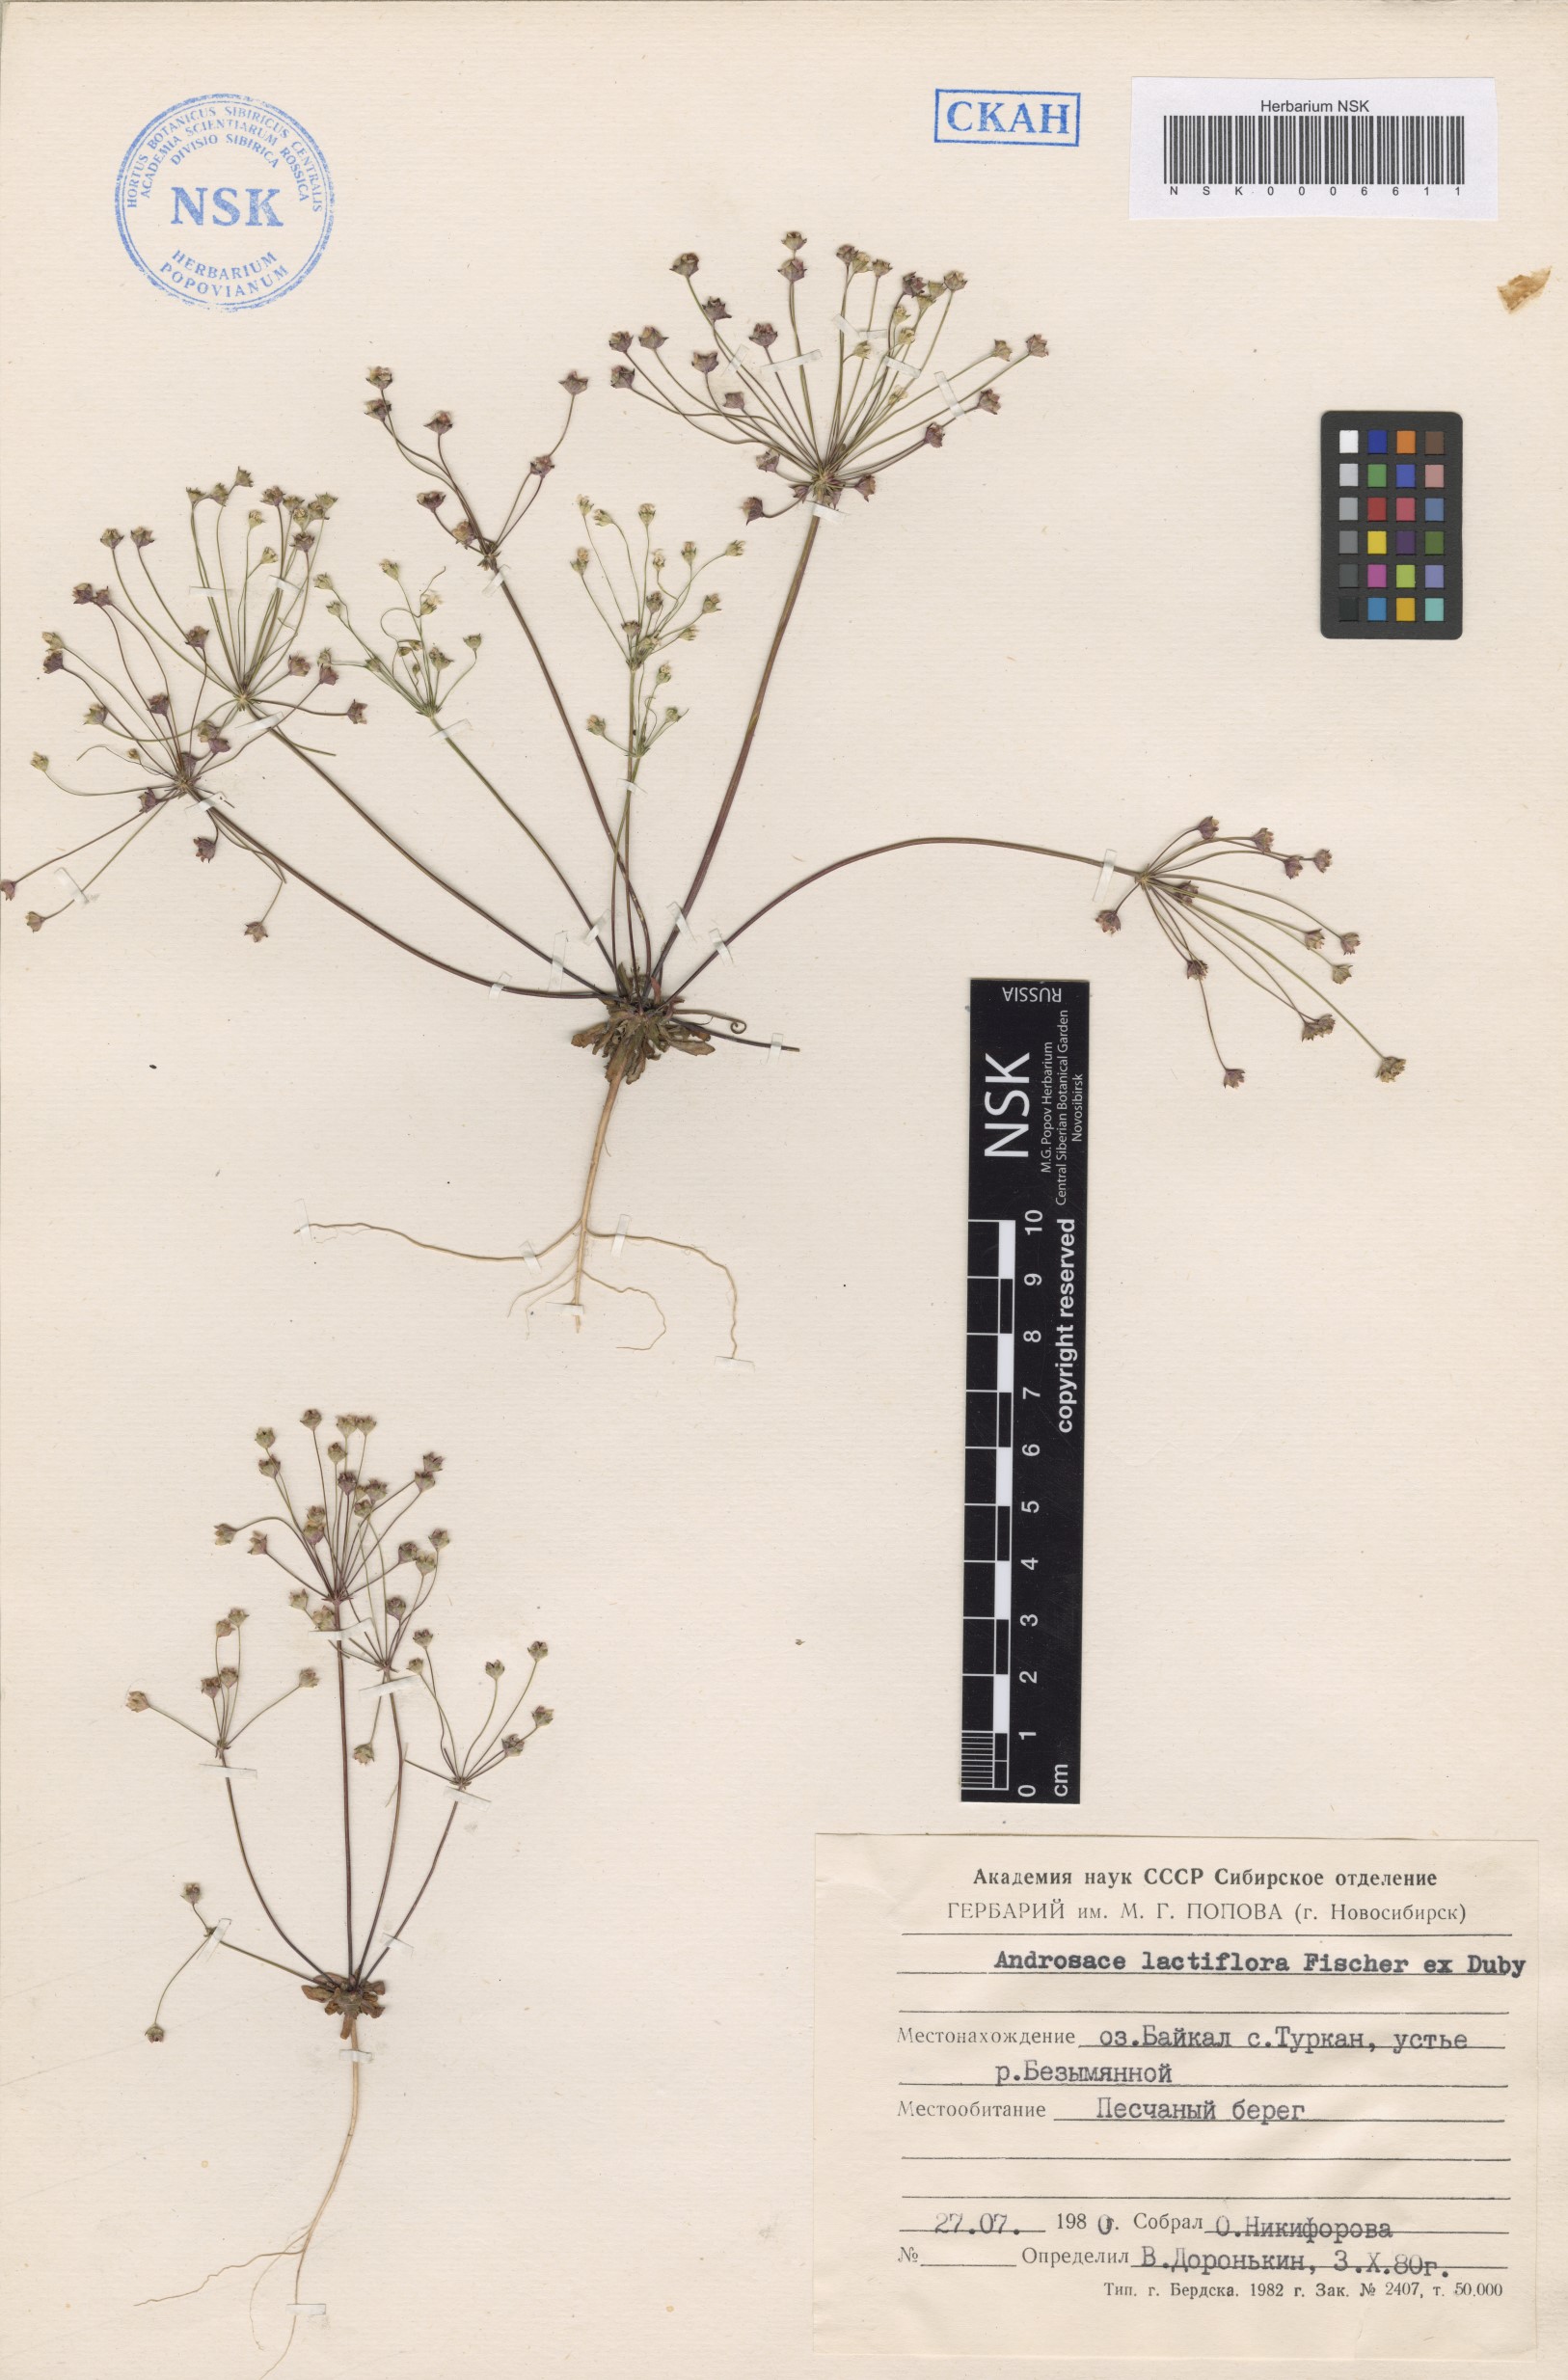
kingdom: Plantae
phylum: Tracheophyta
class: Magnoliopsida
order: Ericales
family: Primulaceae
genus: Androsace
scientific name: Androsace lactiflora
